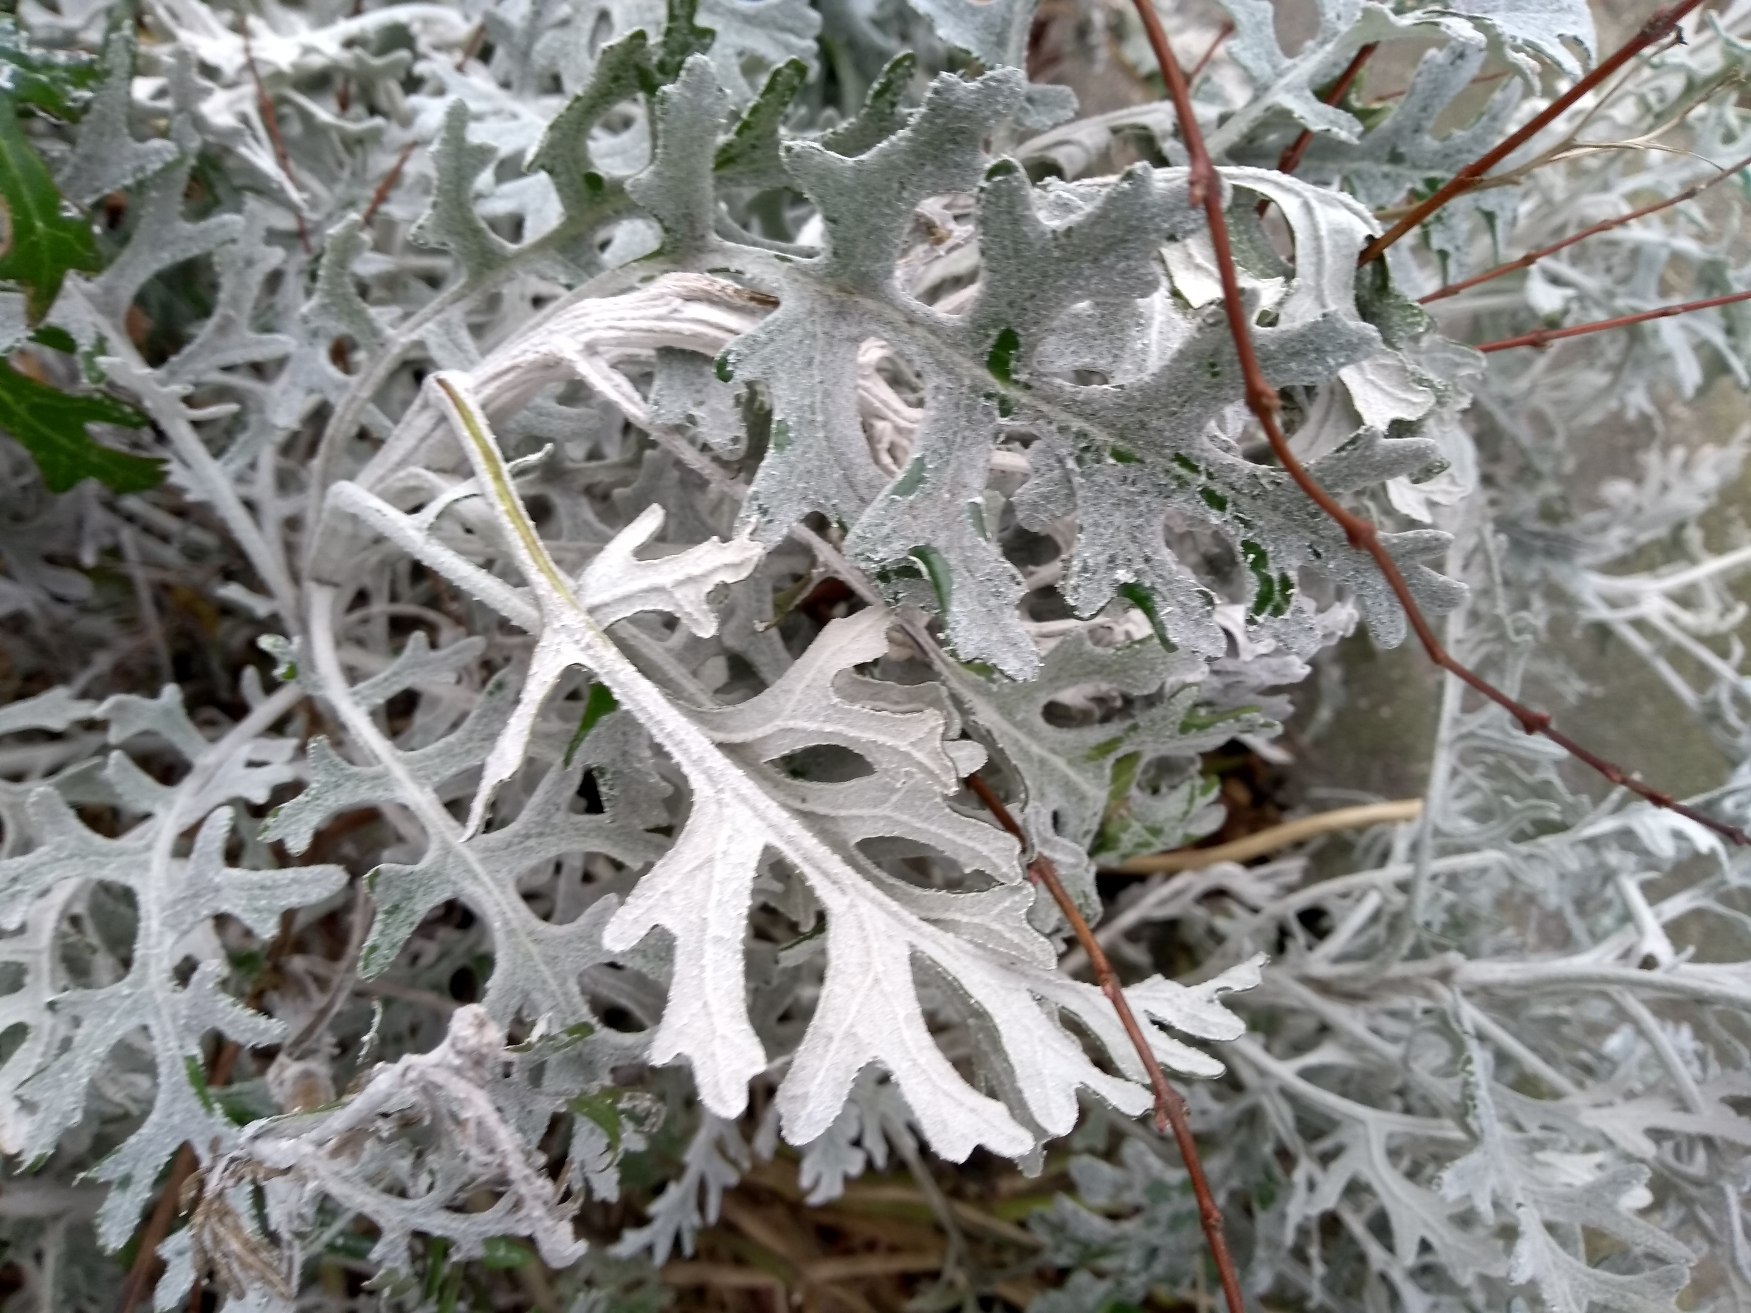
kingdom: Plantae
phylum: Tracheophyta
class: Magnoliopsida
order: Asterales
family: Asteraceae
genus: Jacobaea
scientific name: Jacobaea maritima
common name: Gråblad
